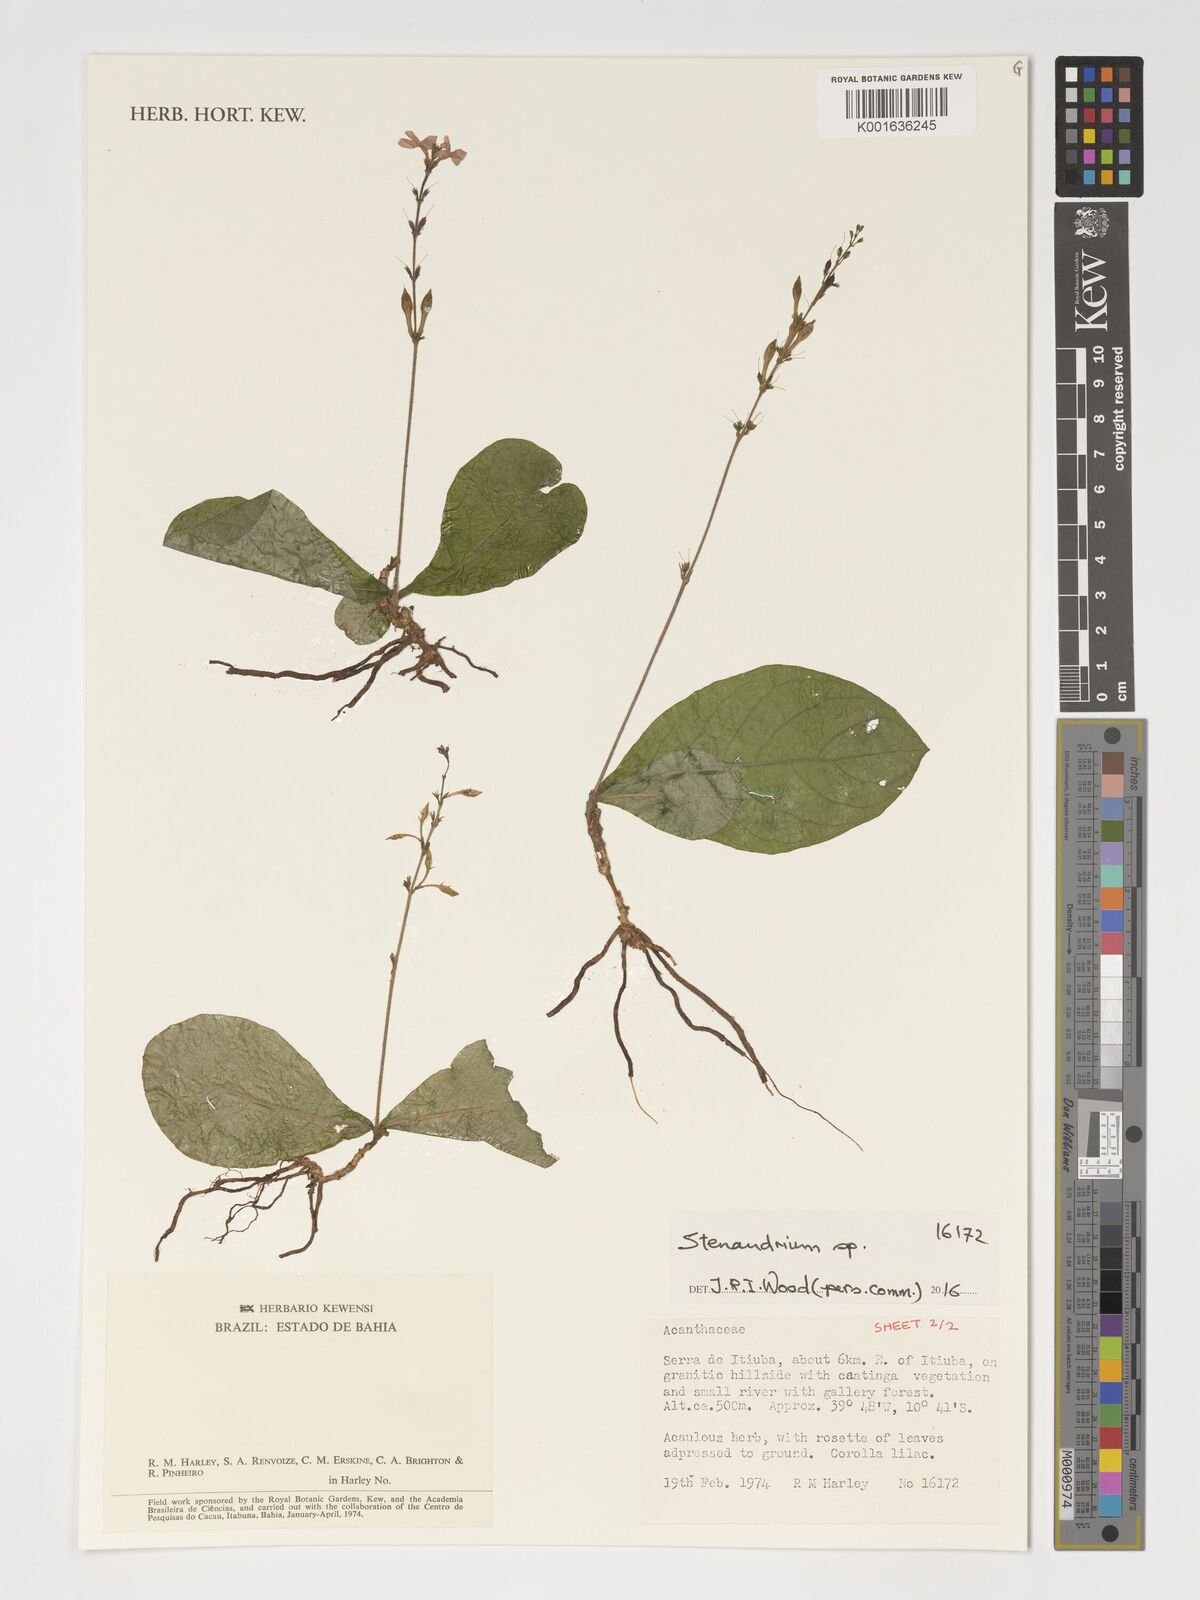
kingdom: Plantae
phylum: Tracheophyta
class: Magnoliopsida
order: Lamiales
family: Acanthaceae
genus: Stenandrium
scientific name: Stenandrium
